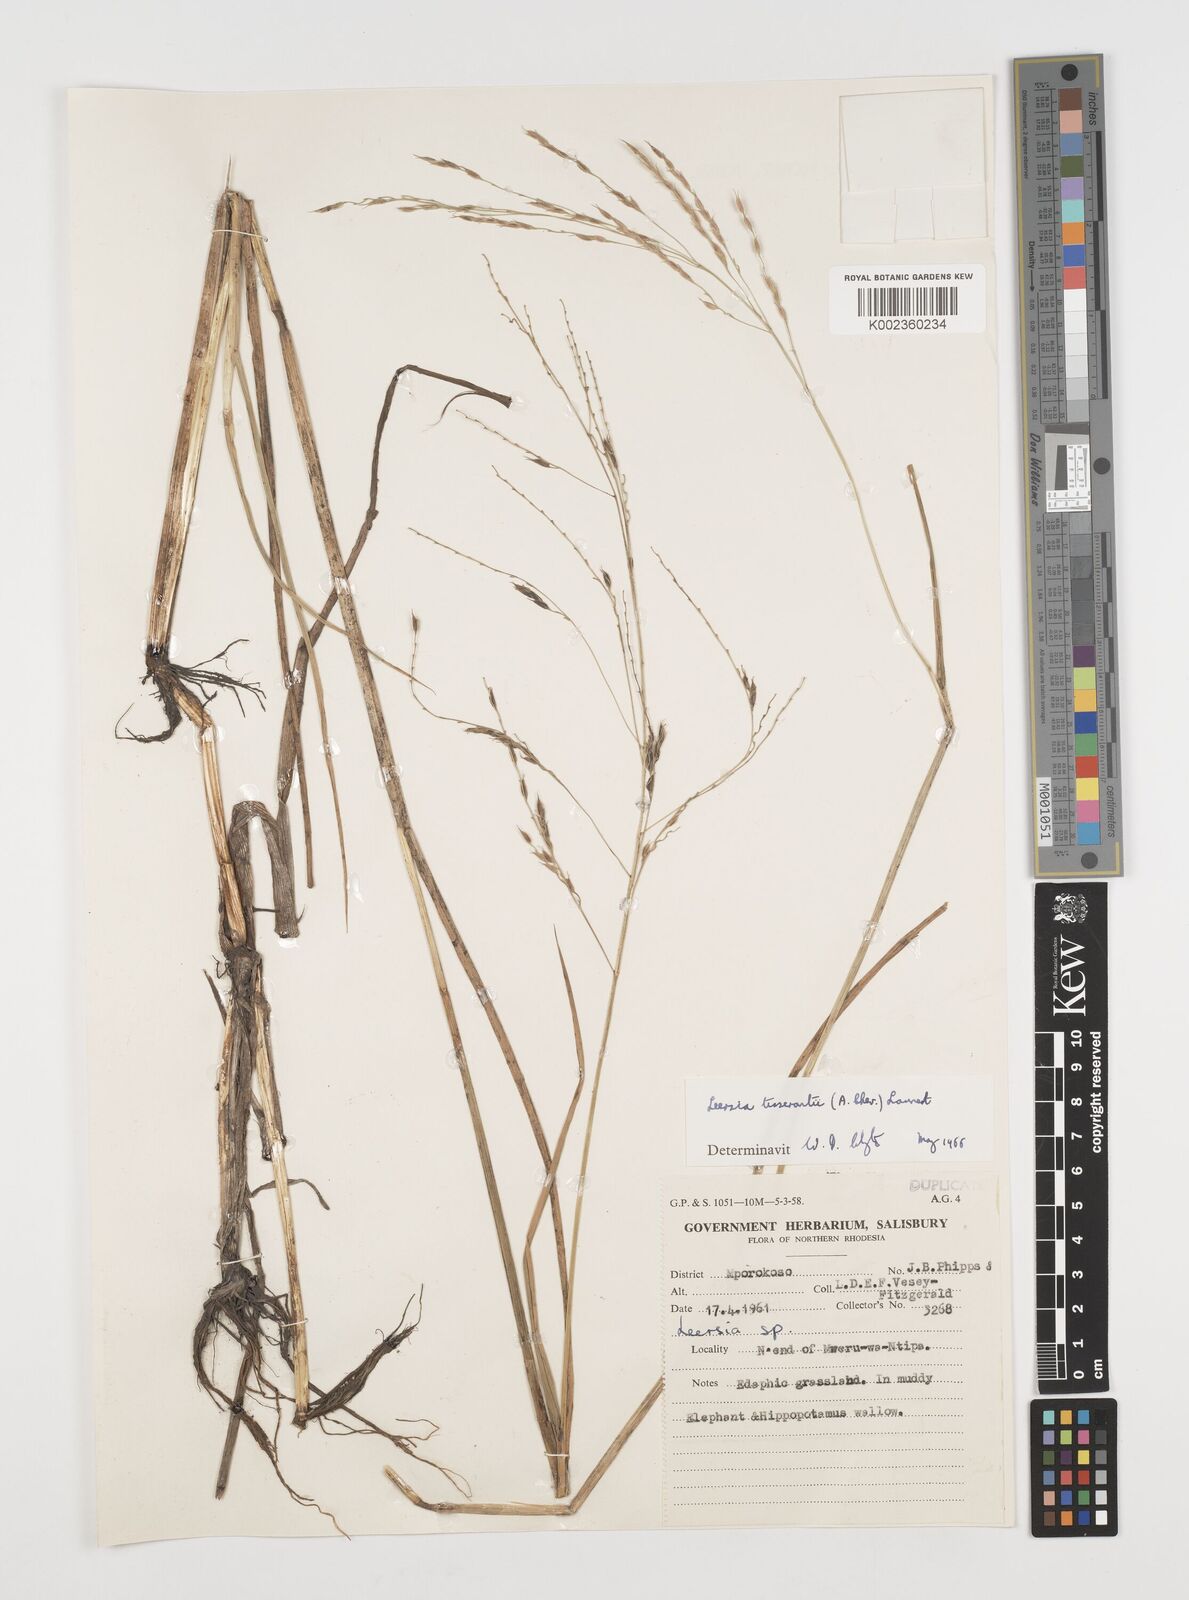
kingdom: Plantae
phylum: Tracheophyta
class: Liliopsida
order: Poales
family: Poaceae
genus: Leersia
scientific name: Leersia tisserantii
